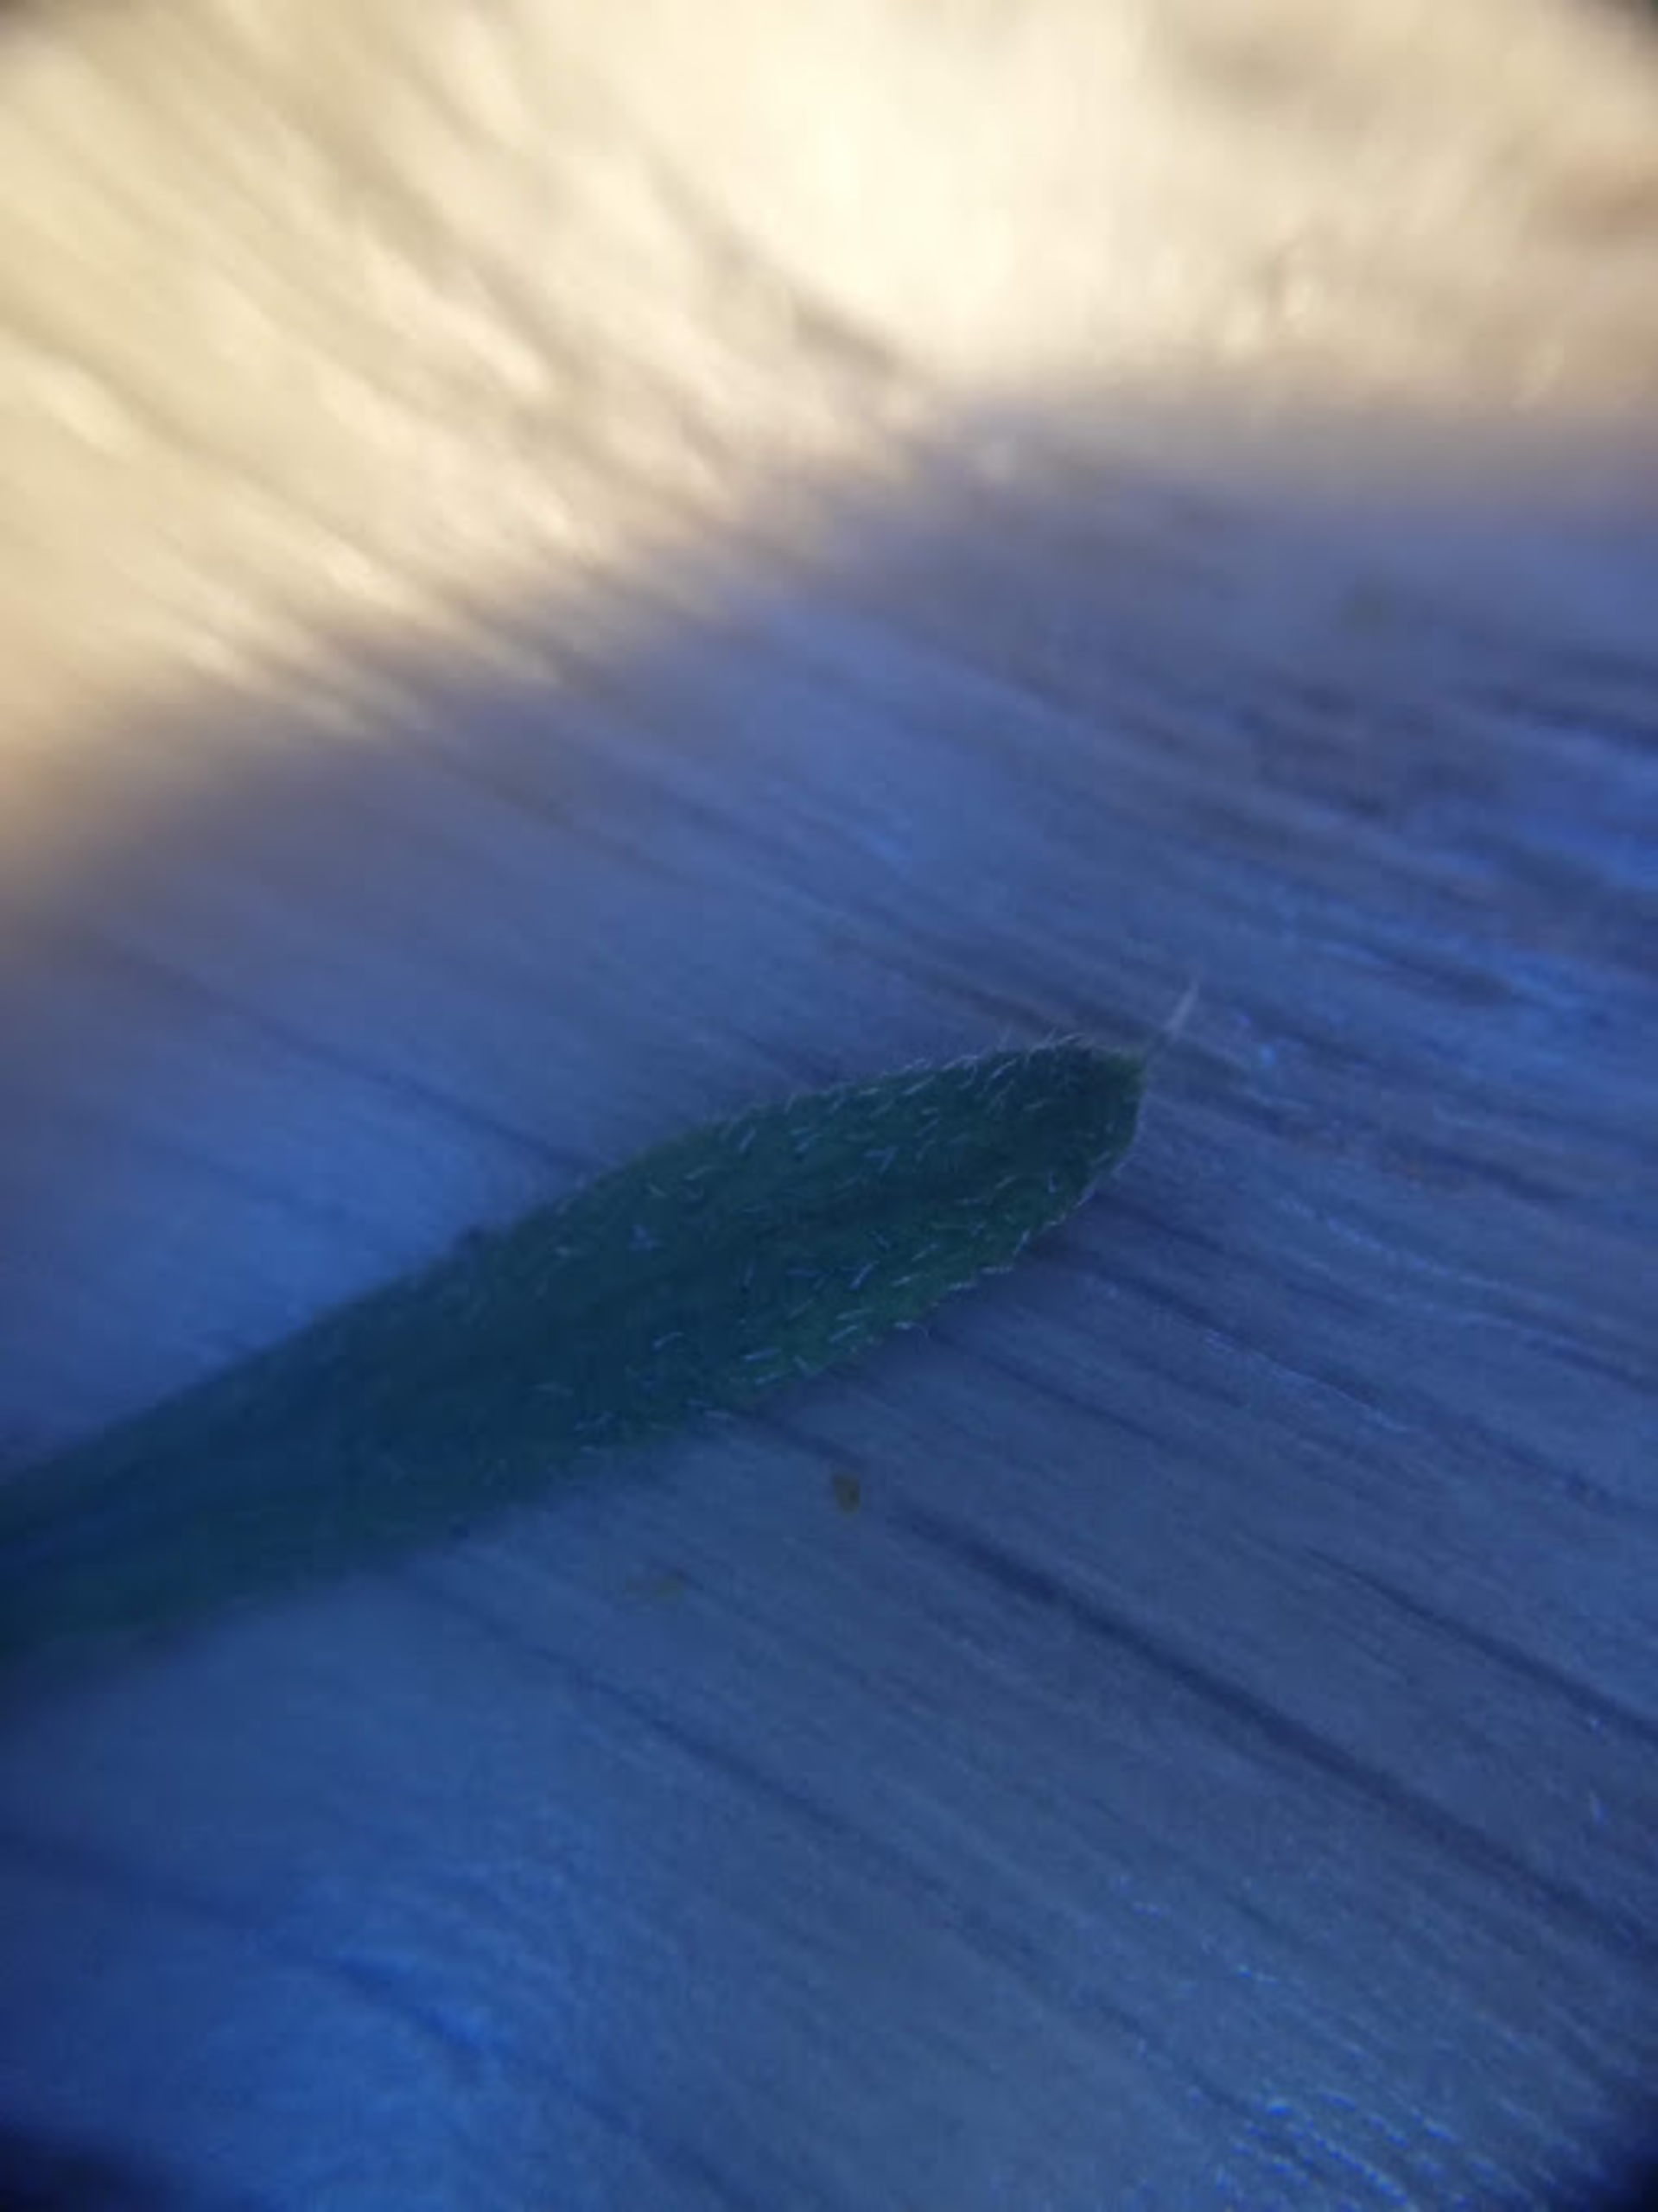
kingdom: Plantae
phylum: Tracheophyta
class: Magnoliopsida
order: Gentianales
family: Rubiaceae
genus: Galium
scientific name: Galium aparine
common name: Burre-snerre
